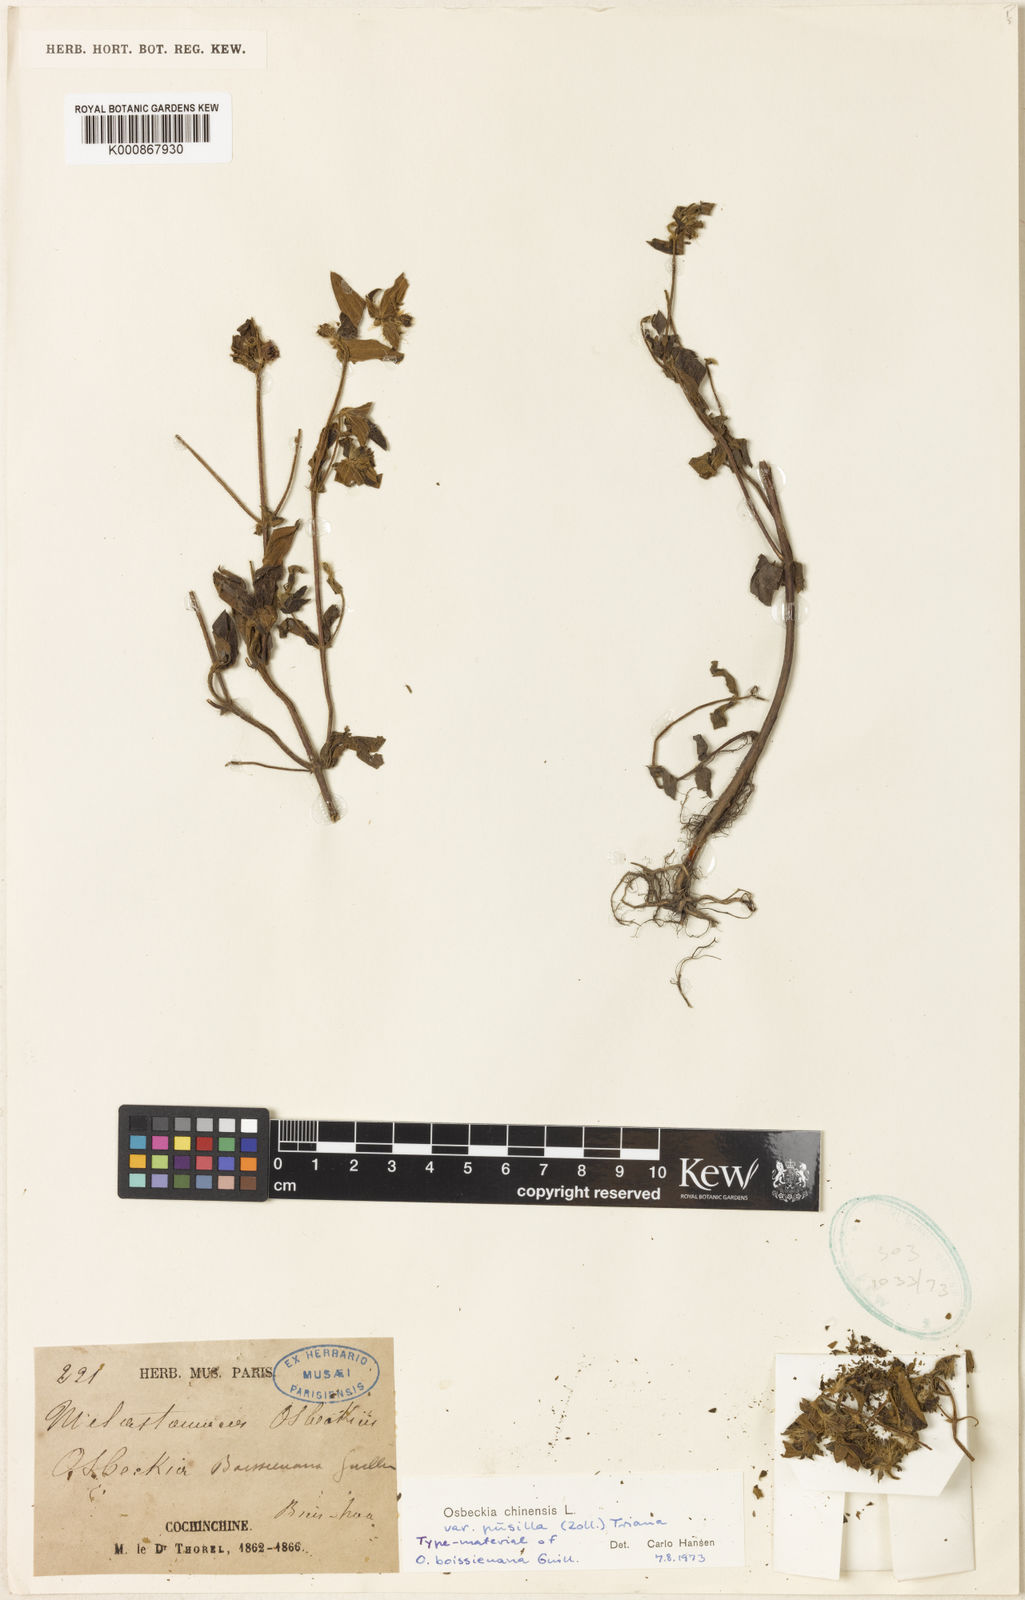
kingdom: Plantae
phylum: Tracheophyta
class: Magnoliopsida
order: Myrtales
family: Melastomataceae
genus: Osbeckia
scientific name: Osbeckia
